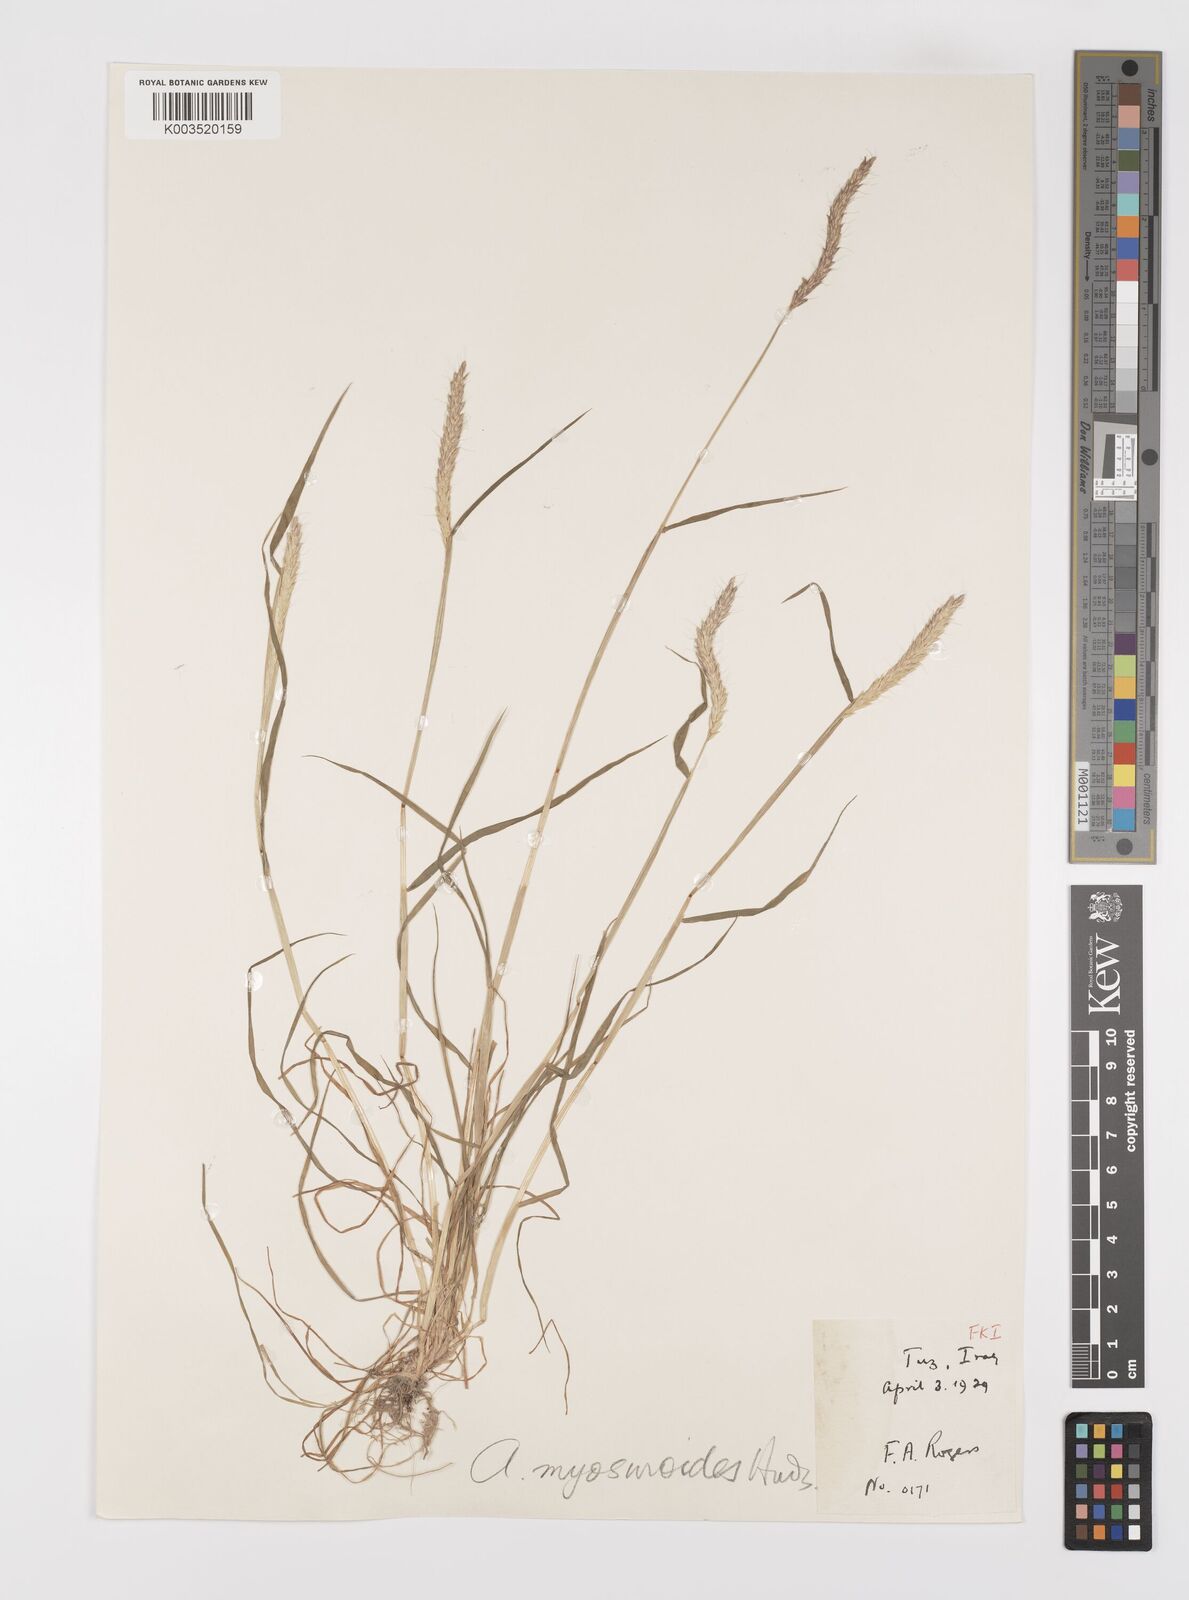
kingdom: Plantae
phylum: Tracheophyta
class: Liliopsida
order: Poales
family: Poaceae
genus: Alopecurus
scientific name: Alopecurus myosuroides
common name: Black-grass
